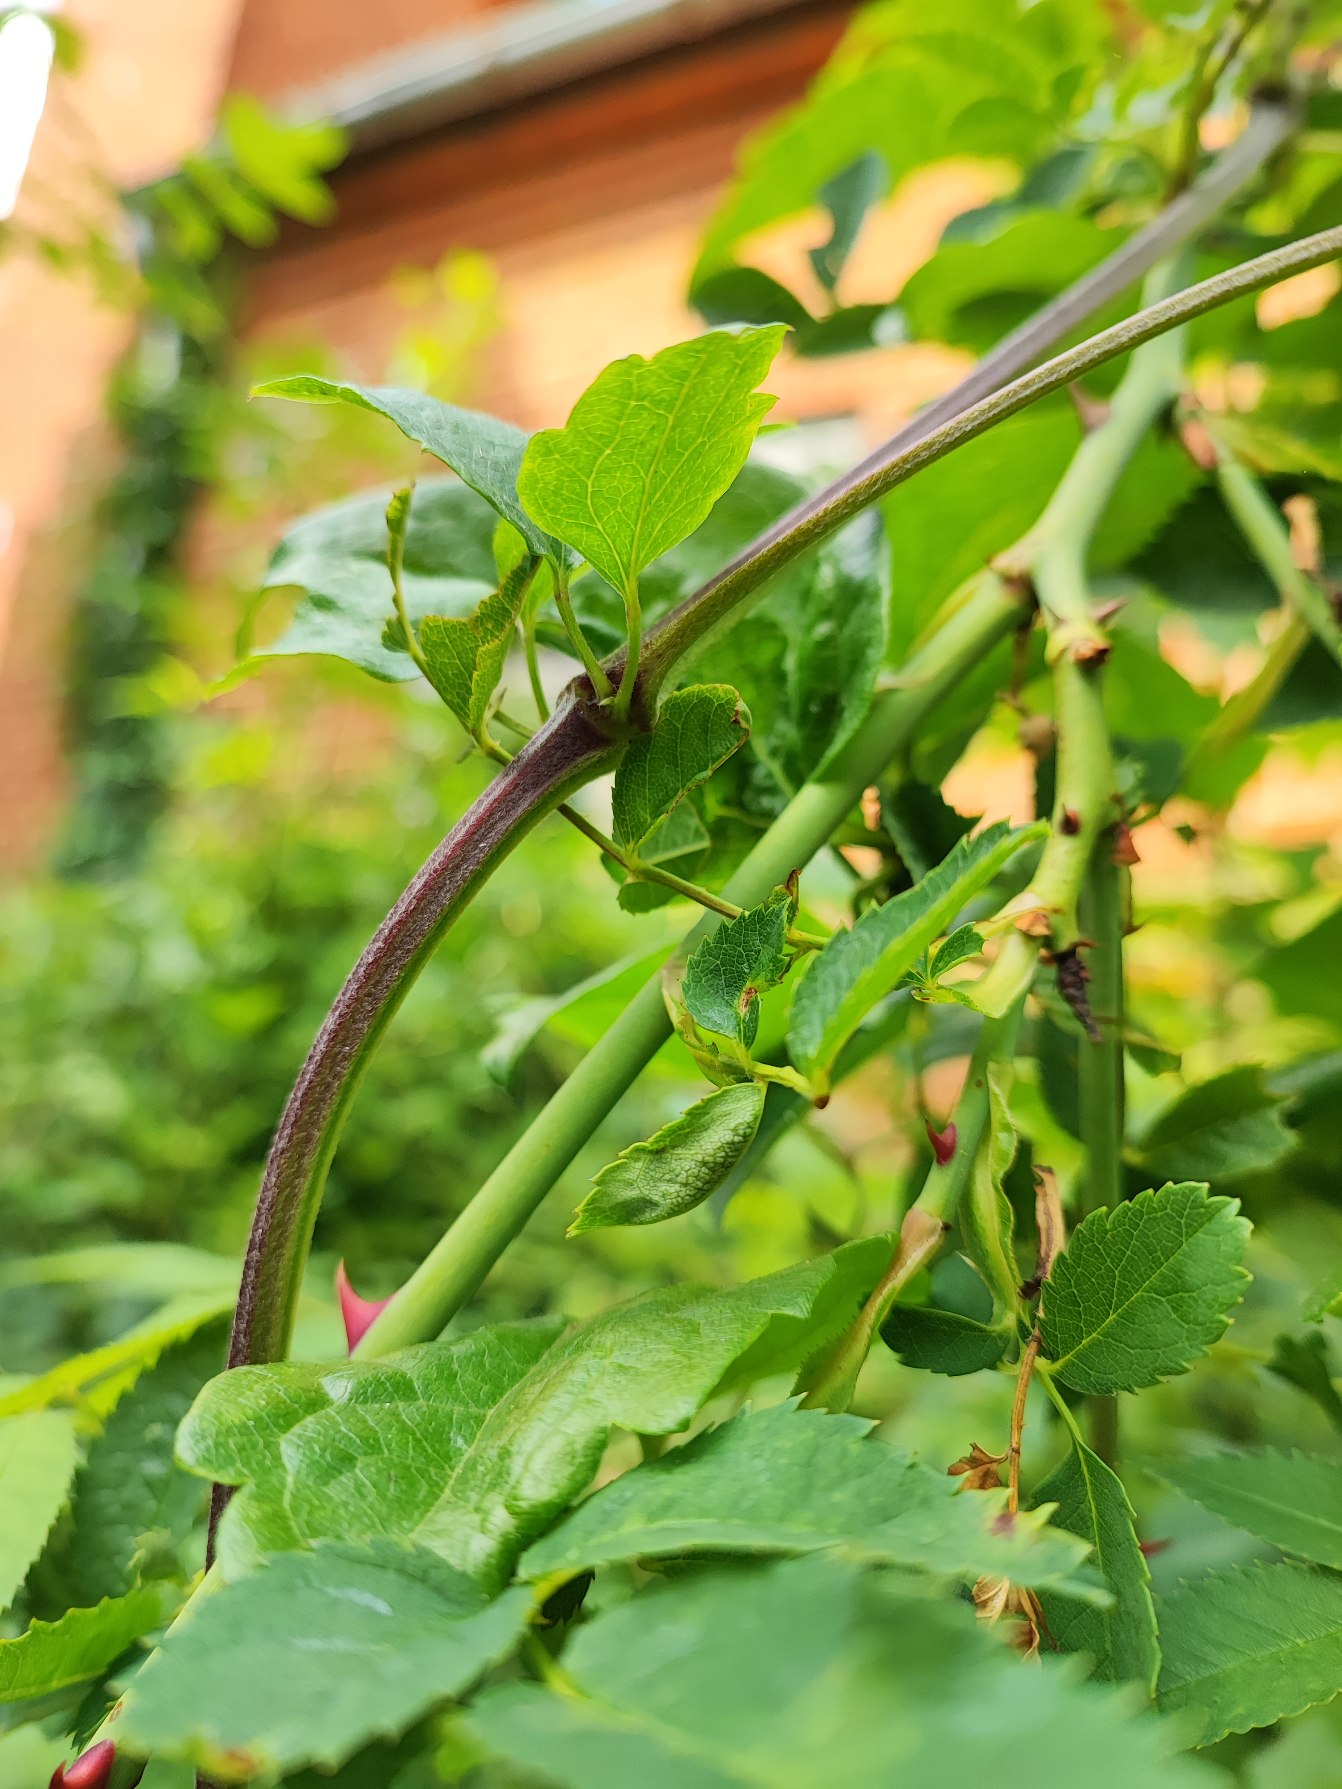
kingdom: Animalia
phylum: Arthropoda
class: Insecta
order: Diptera
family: Cecidomyiidae
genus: Wachtliella
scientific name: Wachtliella rosae
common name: Rosenbladgalmyg
